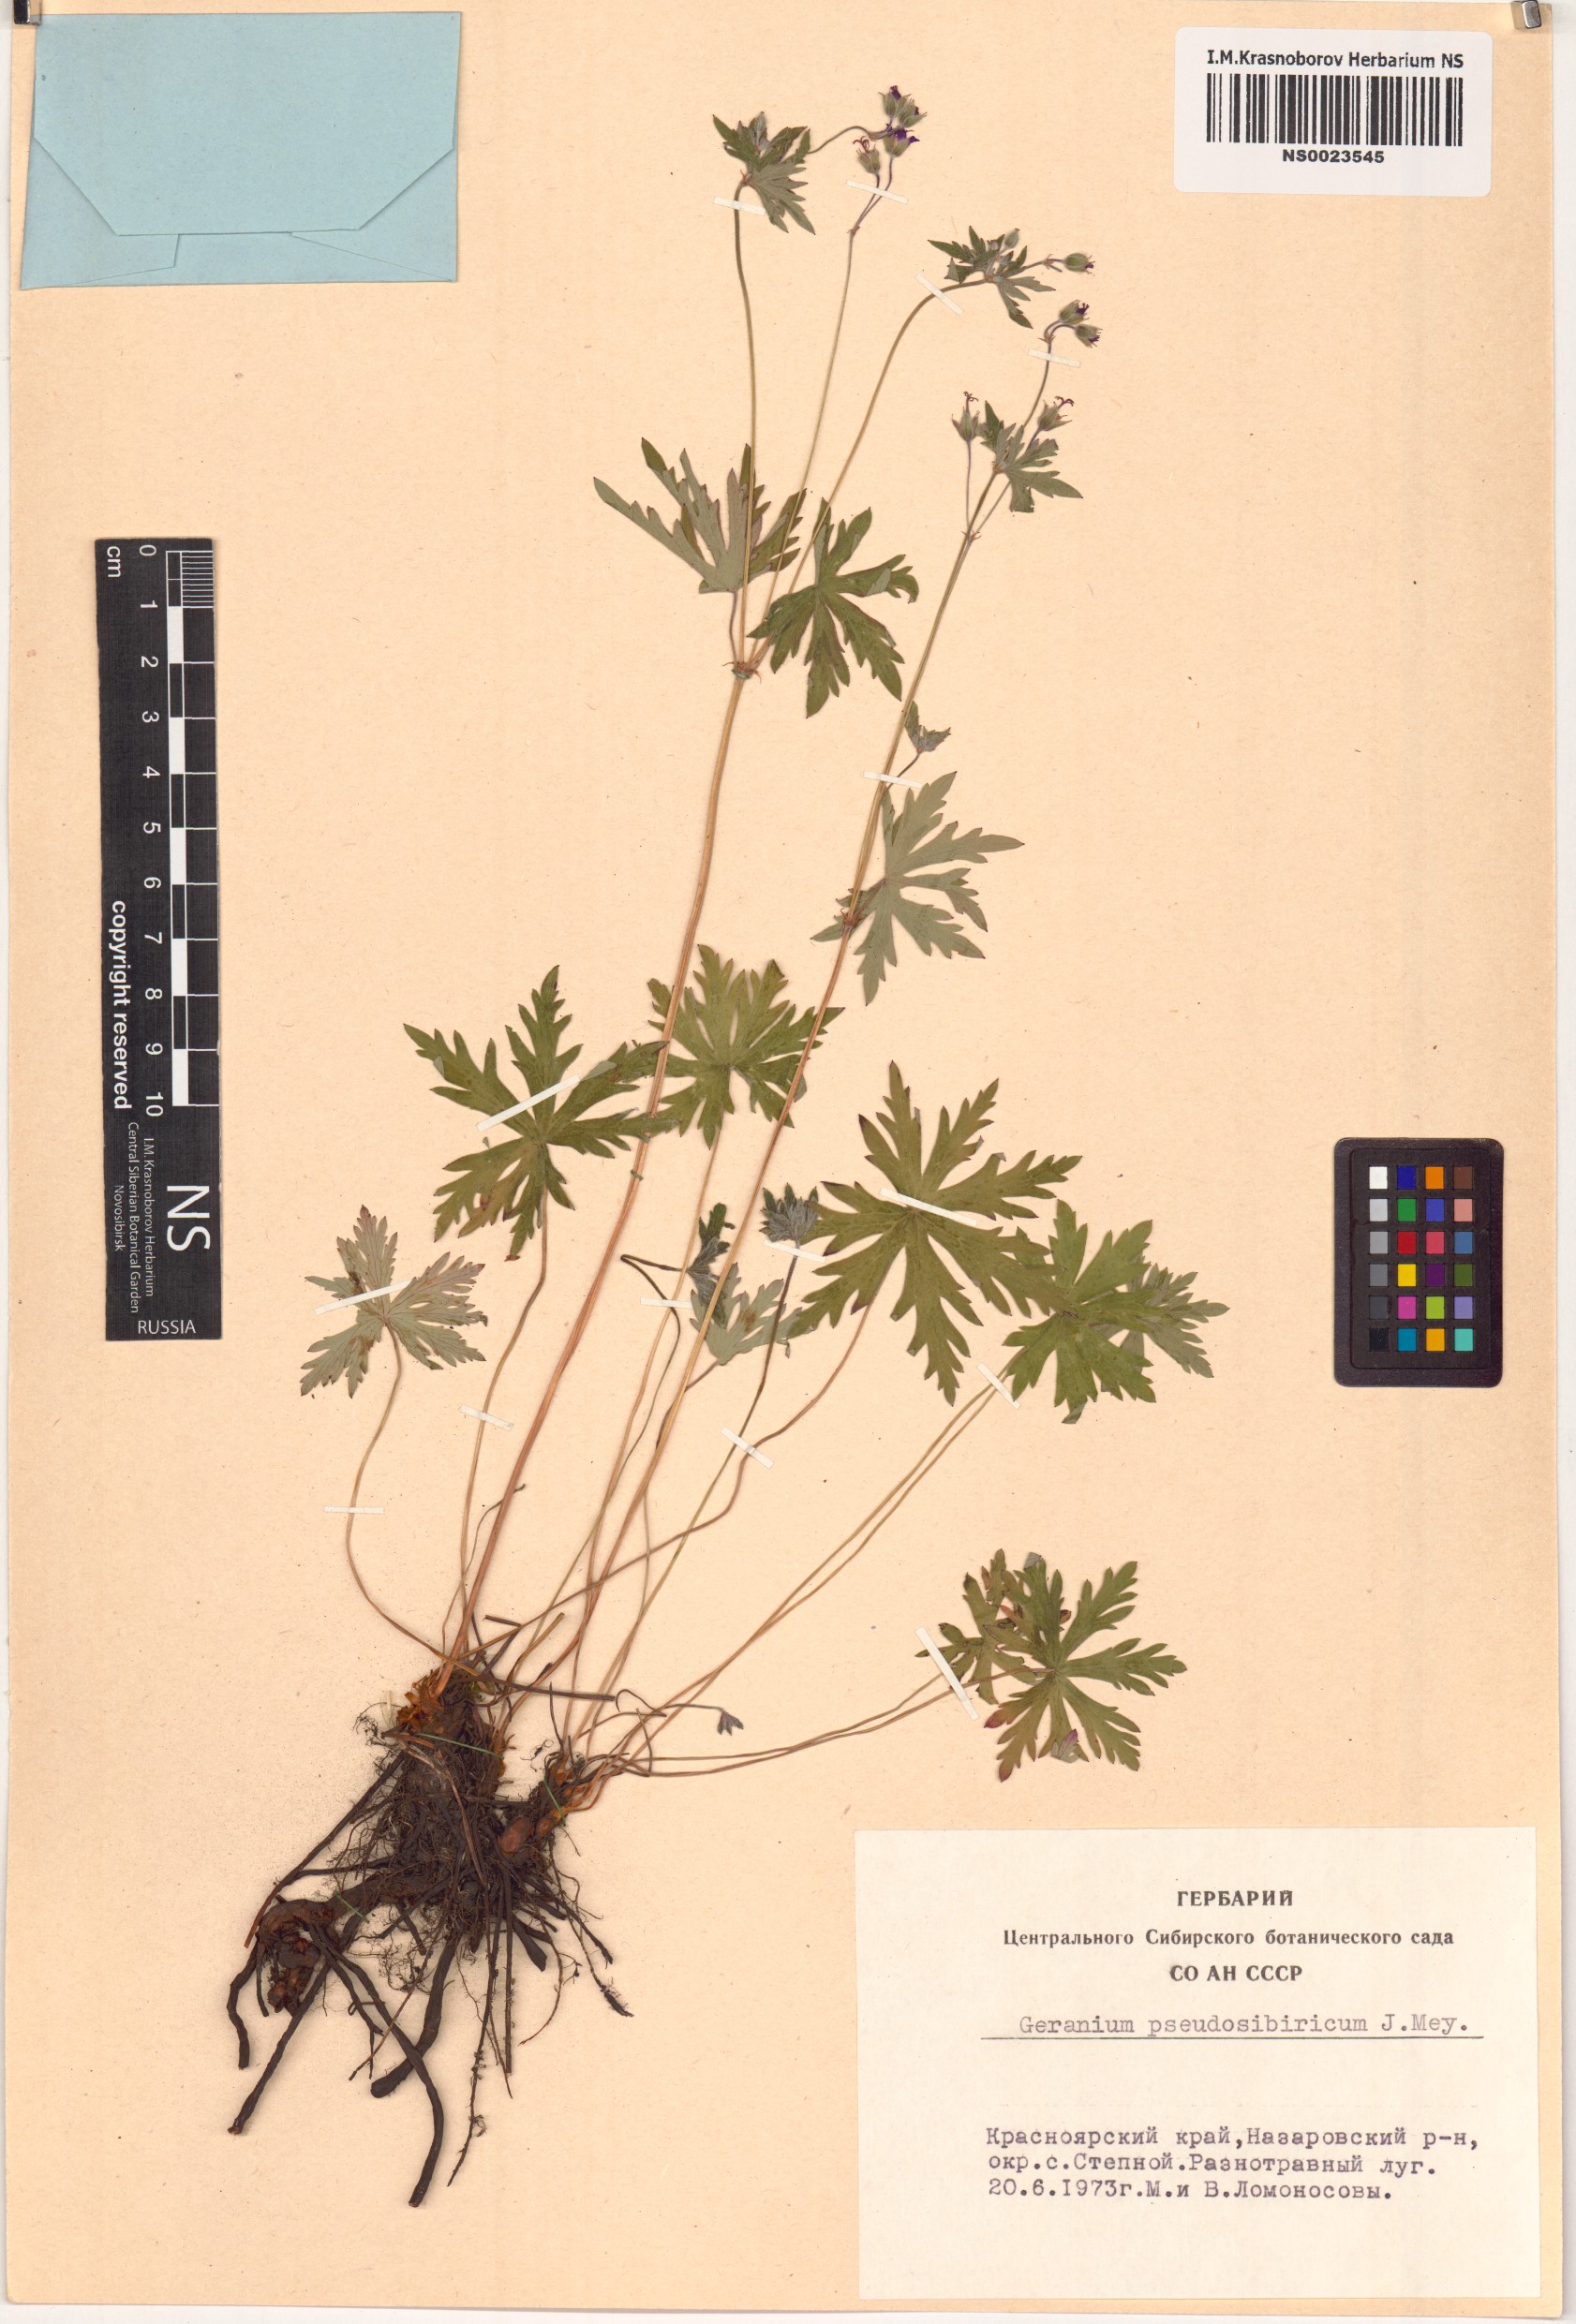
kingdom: Plantae
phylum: Tracheophyta
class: Magnoliopsida
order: Geraniales
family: Geraniaceae
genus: Geranium
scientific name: Geranium pseudosibiricum
